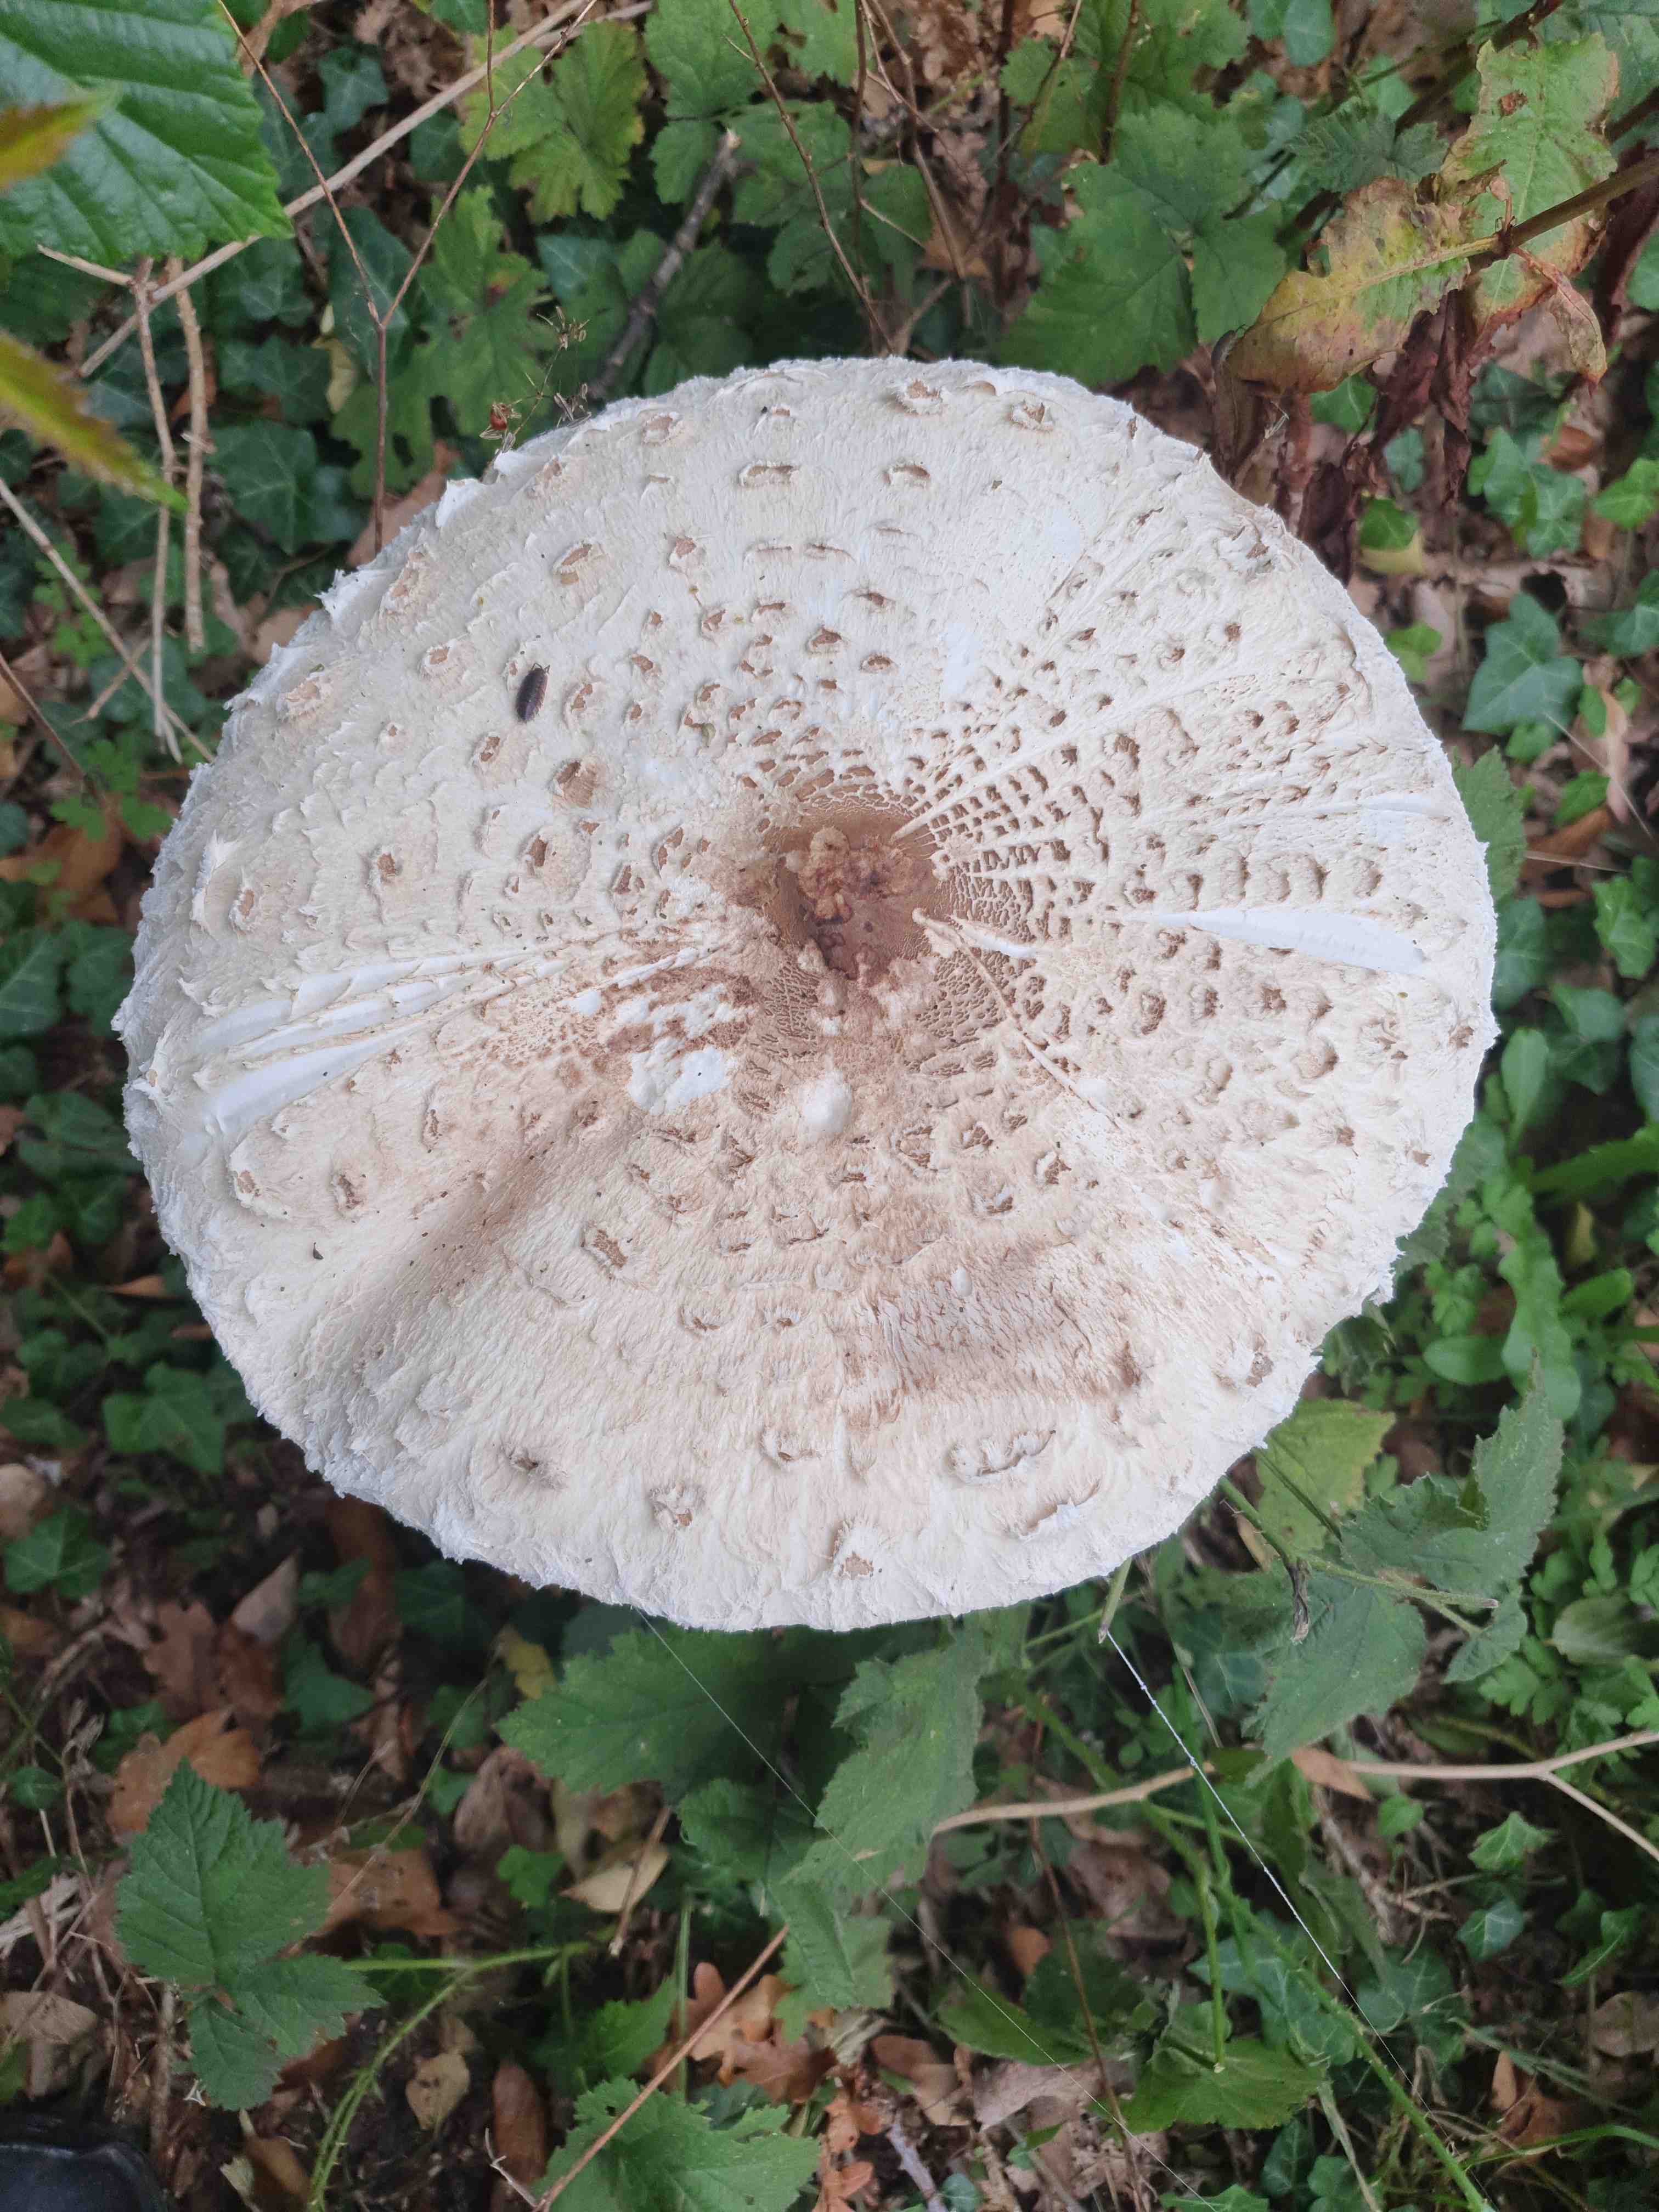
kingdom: Fungi
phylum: Basidiomycota
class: Agaricomycetes
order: Agaricales
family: Agaricaceae
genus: Macrolepiota
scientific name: Macrolepiota procera
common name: stor kæmpeparasolhat
